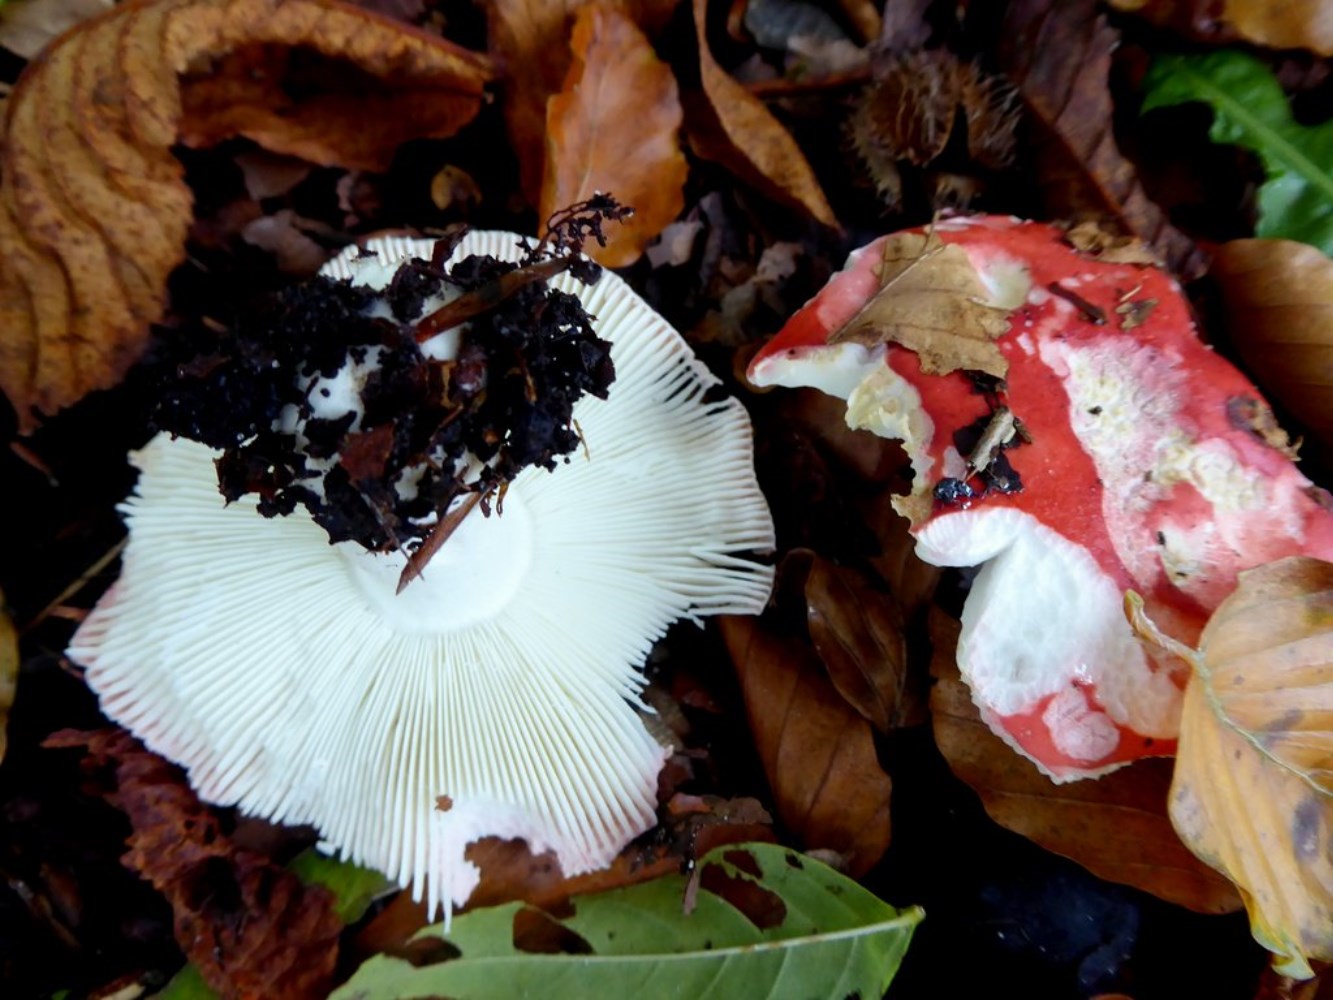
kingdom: Fungi
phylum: Basidiomycota
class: Agaricomycetes
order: Russulales
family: Russulaceae
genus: Russula
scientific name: Russula nobilis
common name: lille gift-skørhat
